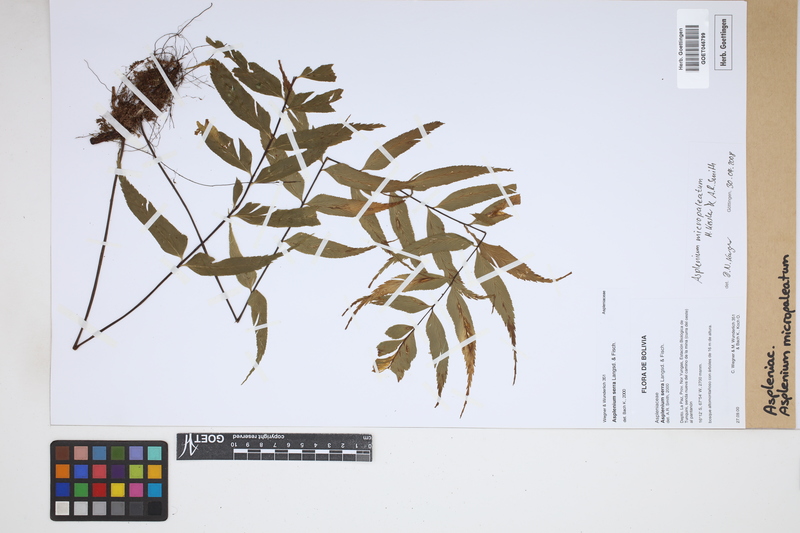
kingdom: Plantae
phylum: Tracheophyta
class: Polypodiopsida
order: Polypodiales
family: Aspleniaceae
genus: Asplenium
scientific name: Asplenium micropaleatum
